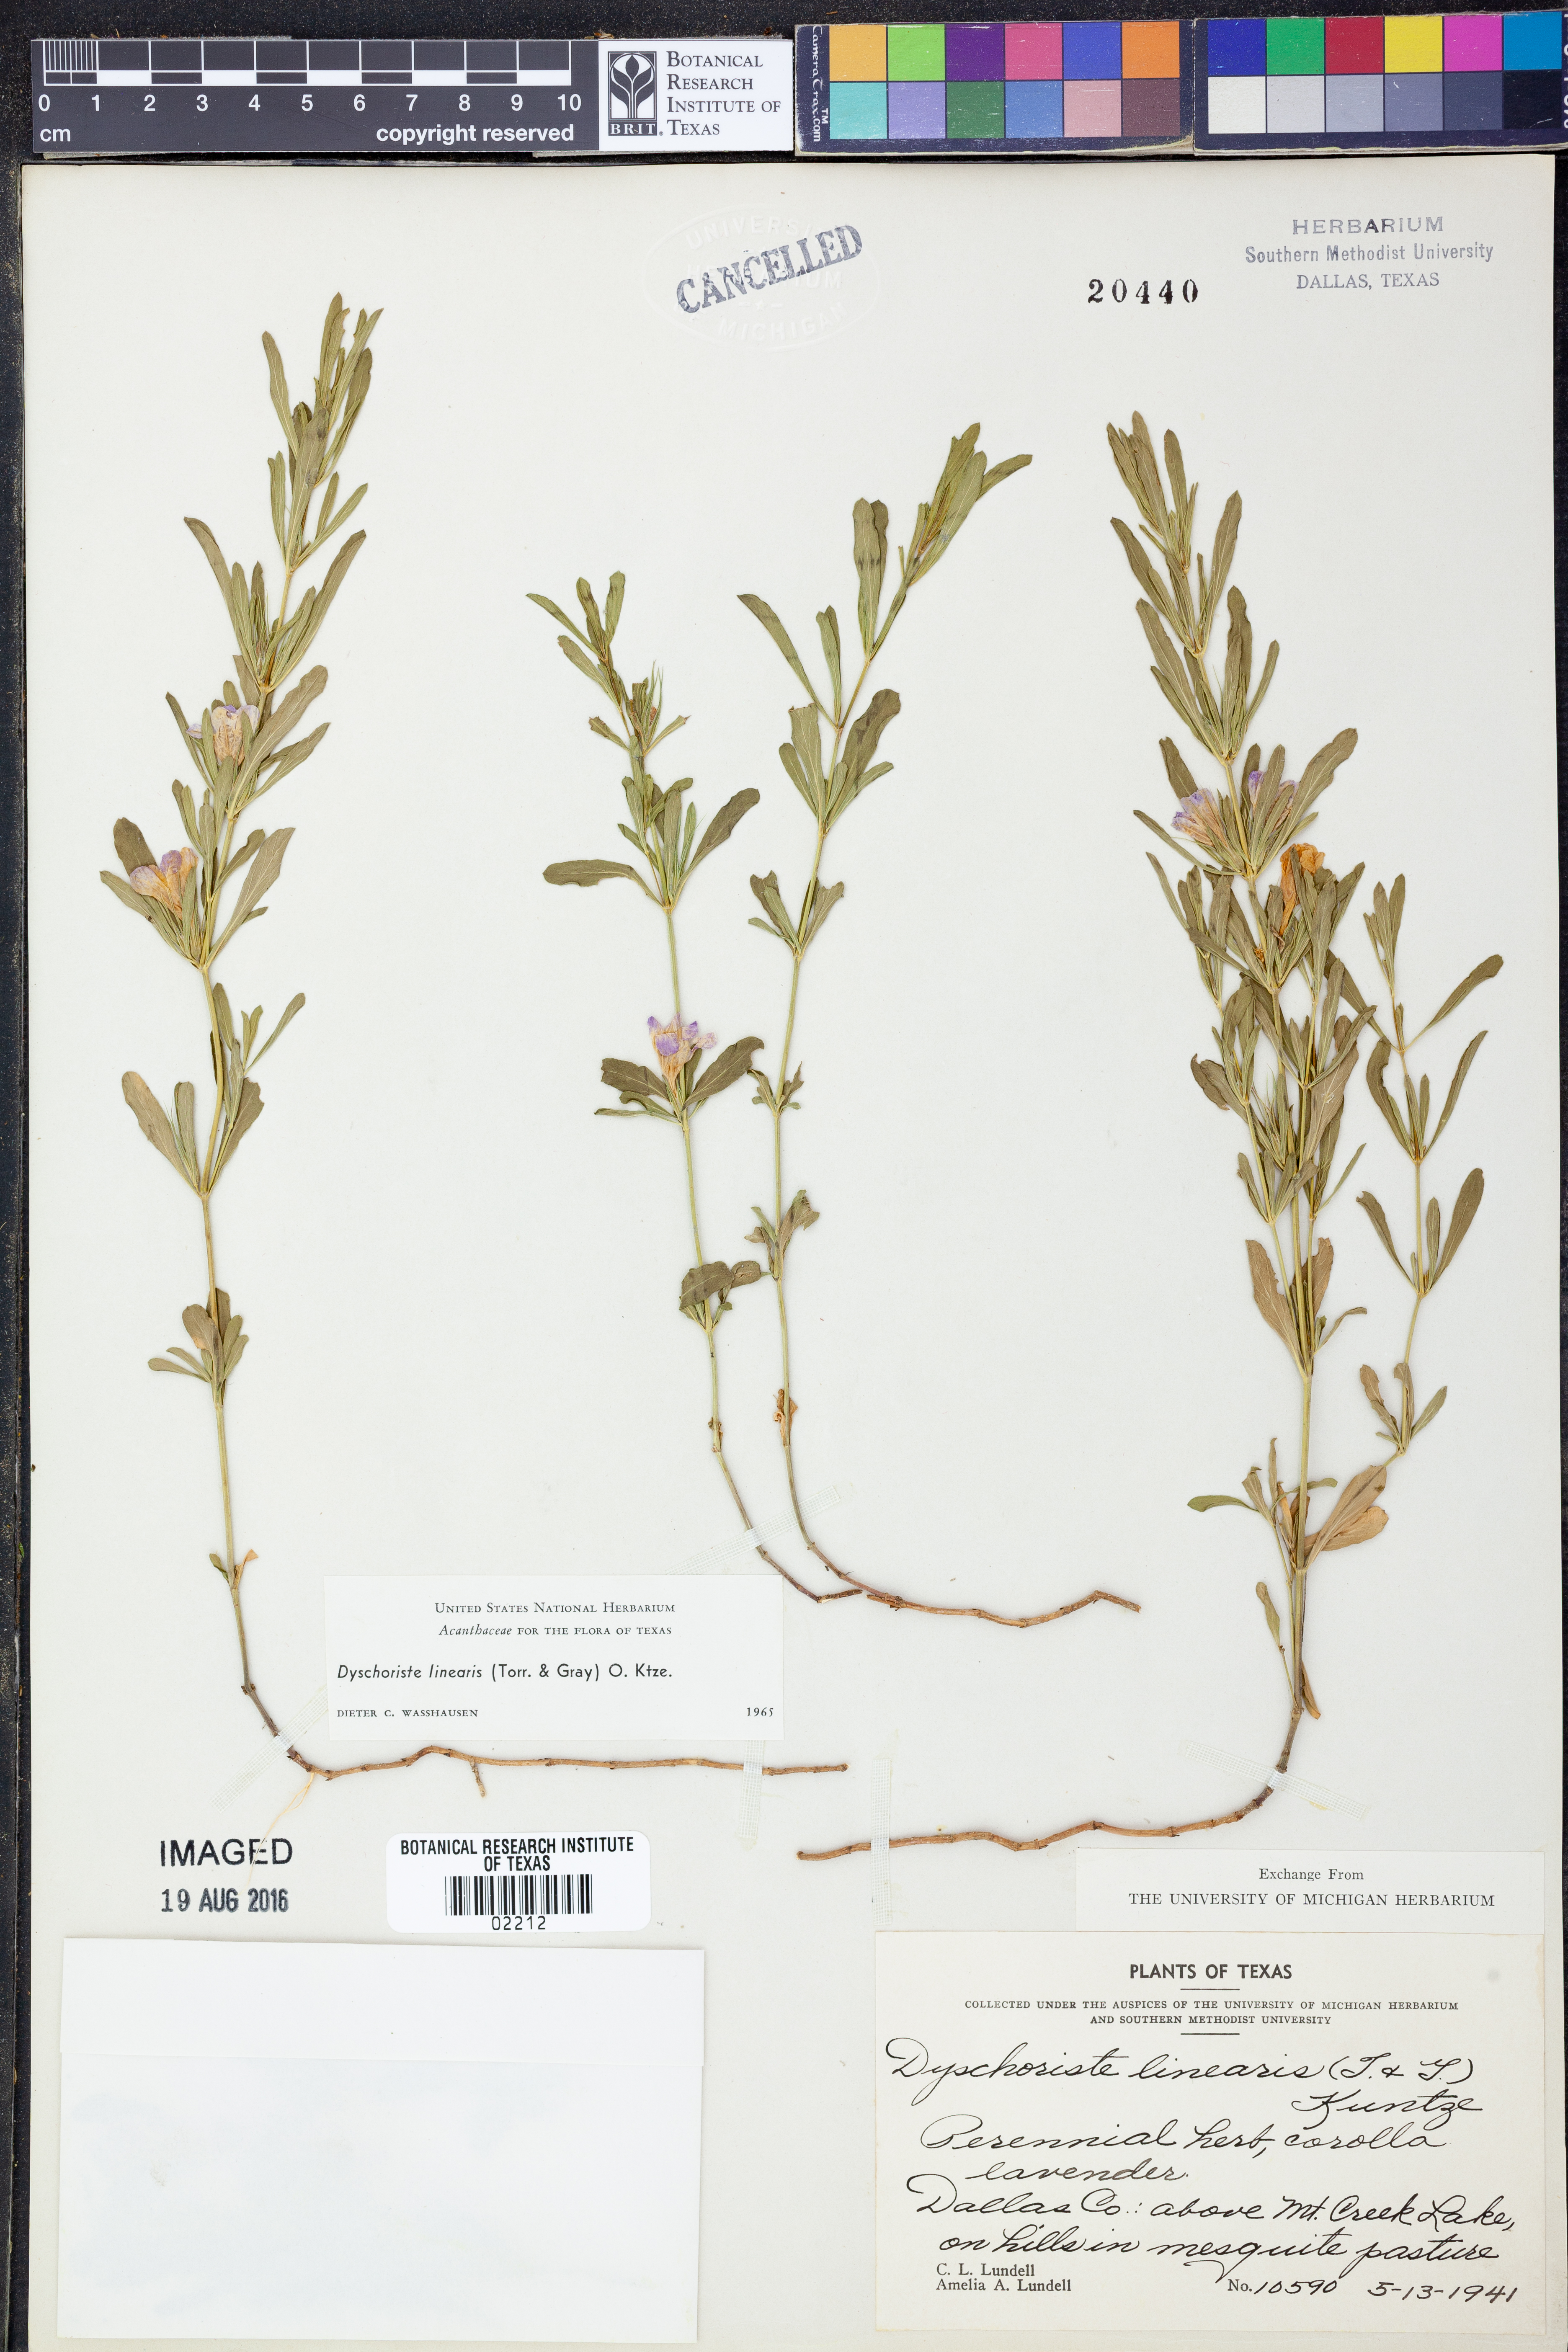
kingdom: Plantae
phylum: Tracheophyta
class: Magnoliopsida
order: Lamiales
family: Acanthaceae
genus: Dyschoriste
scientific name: Dyschoriste linearis
